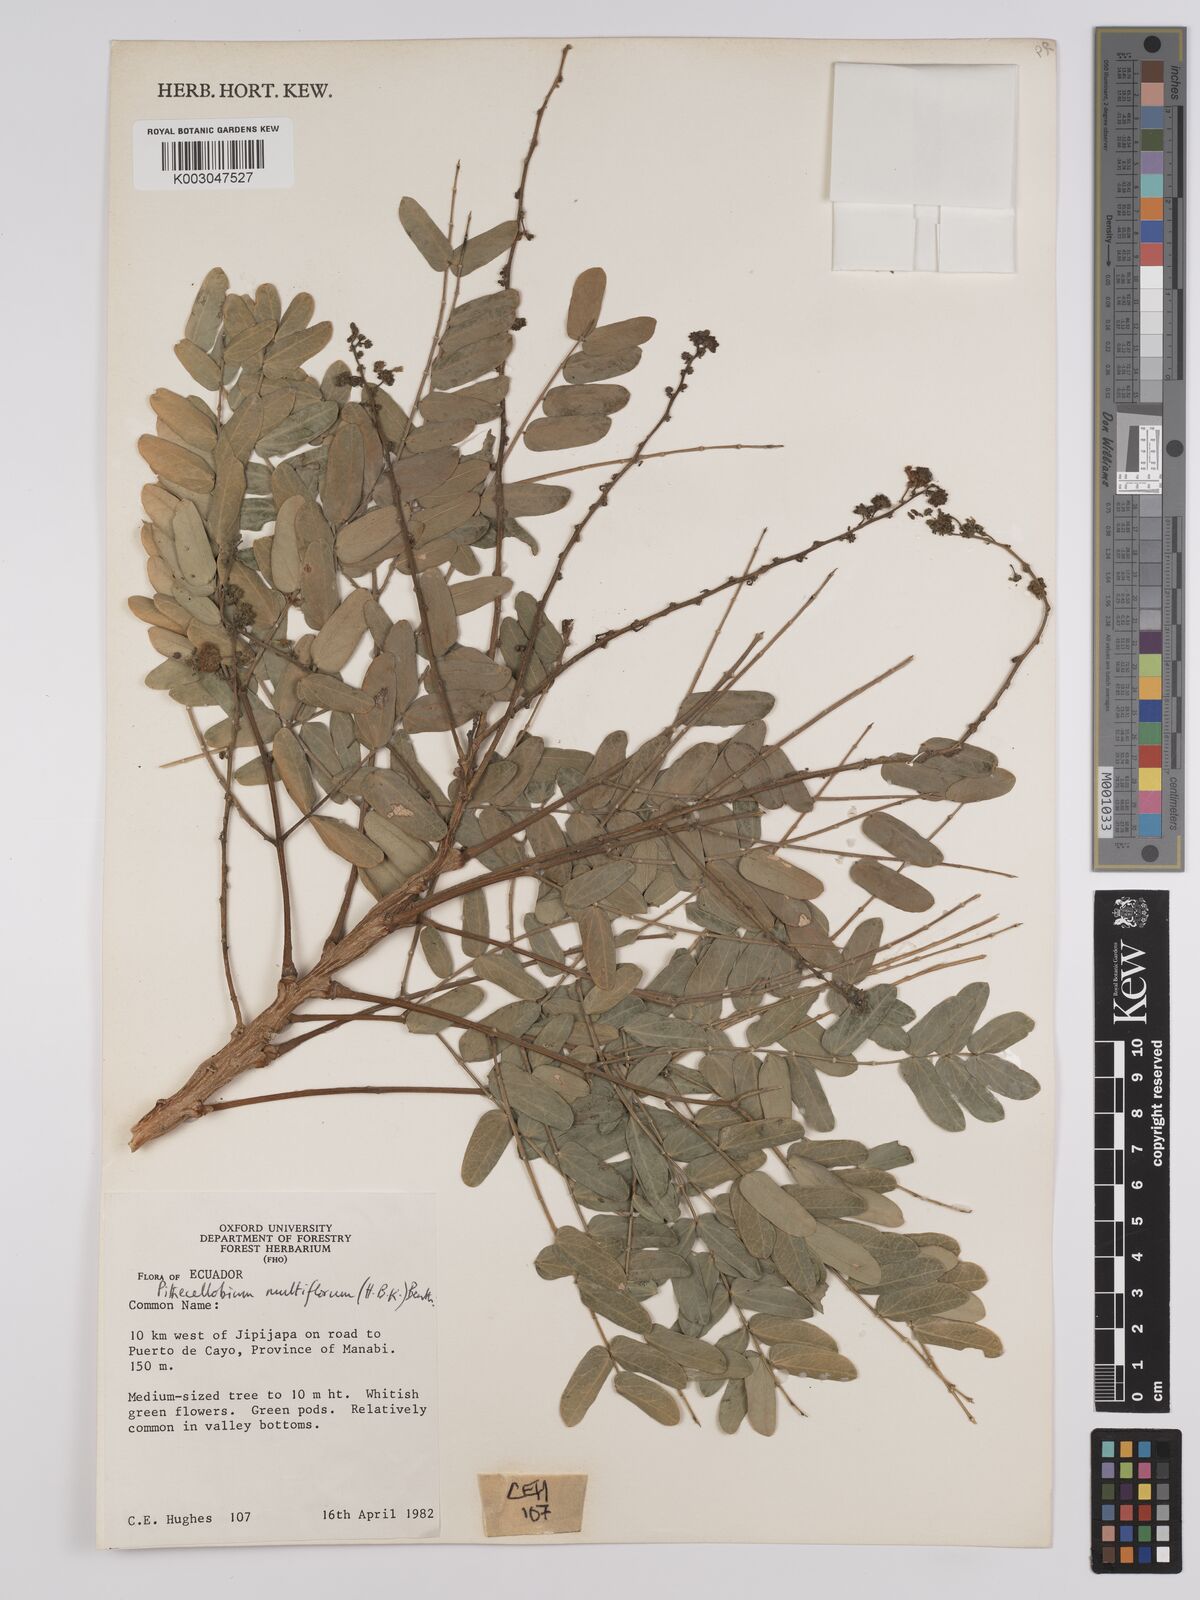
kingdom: Plantae
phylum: Tracheophyta
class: Magnoliopsida
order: Fabales
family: Fabaceae
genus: Albizia
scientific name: Albizia multiflora
